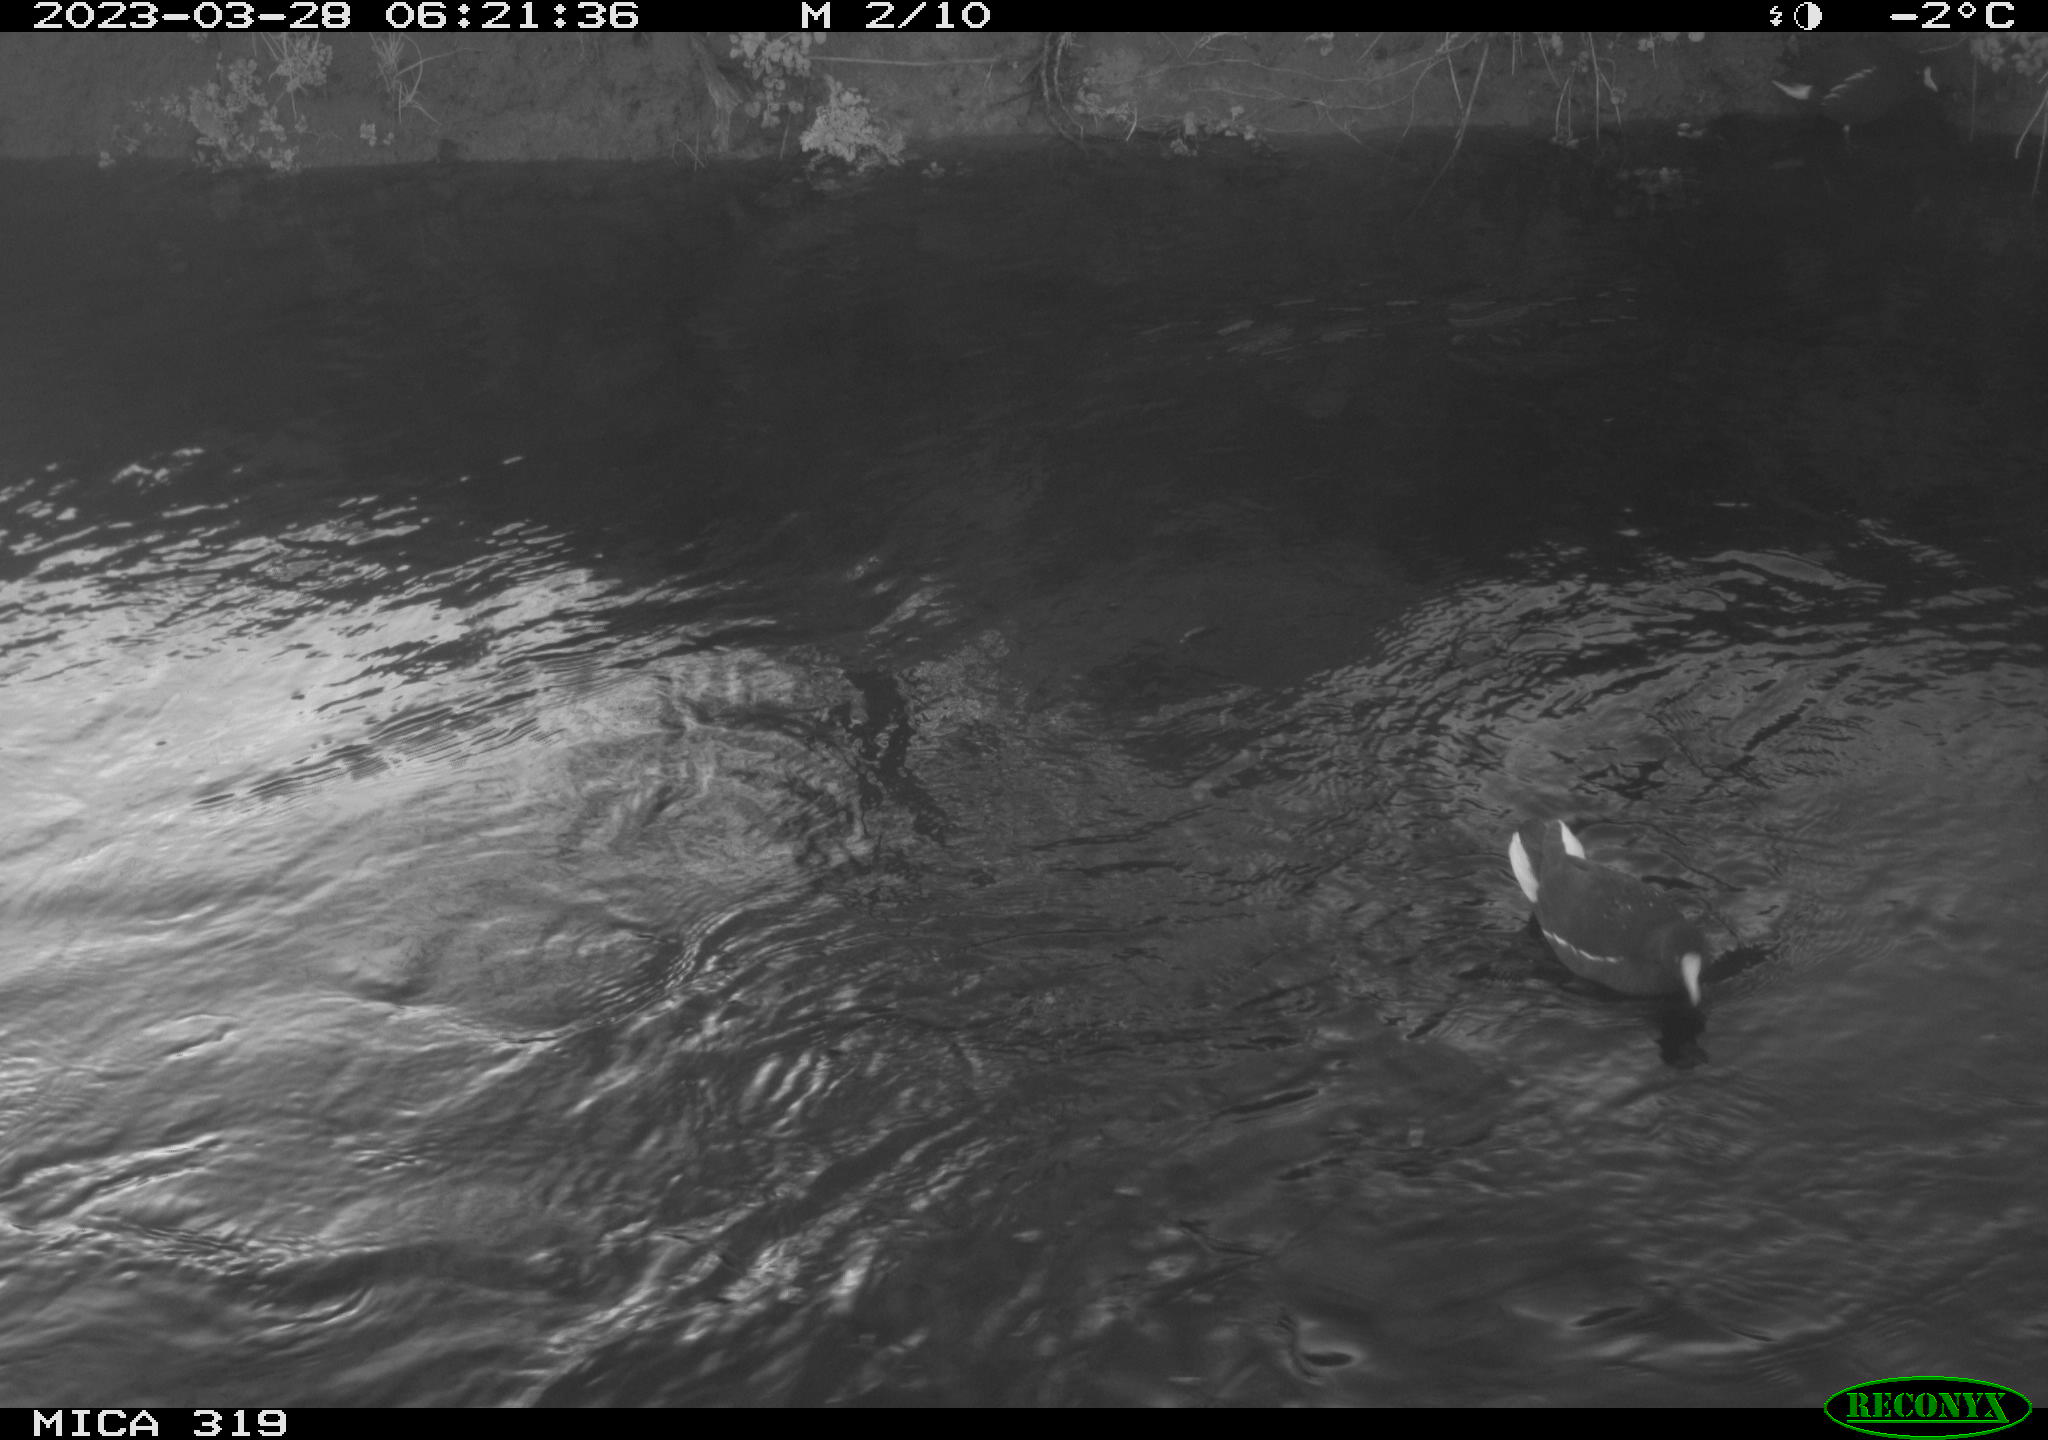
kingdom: Animalia
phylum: Chordata
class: Aves
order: Gruiformes
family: Rallidae
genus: Gallinula
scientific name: Gallinula chloropus
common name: Common moorhen
